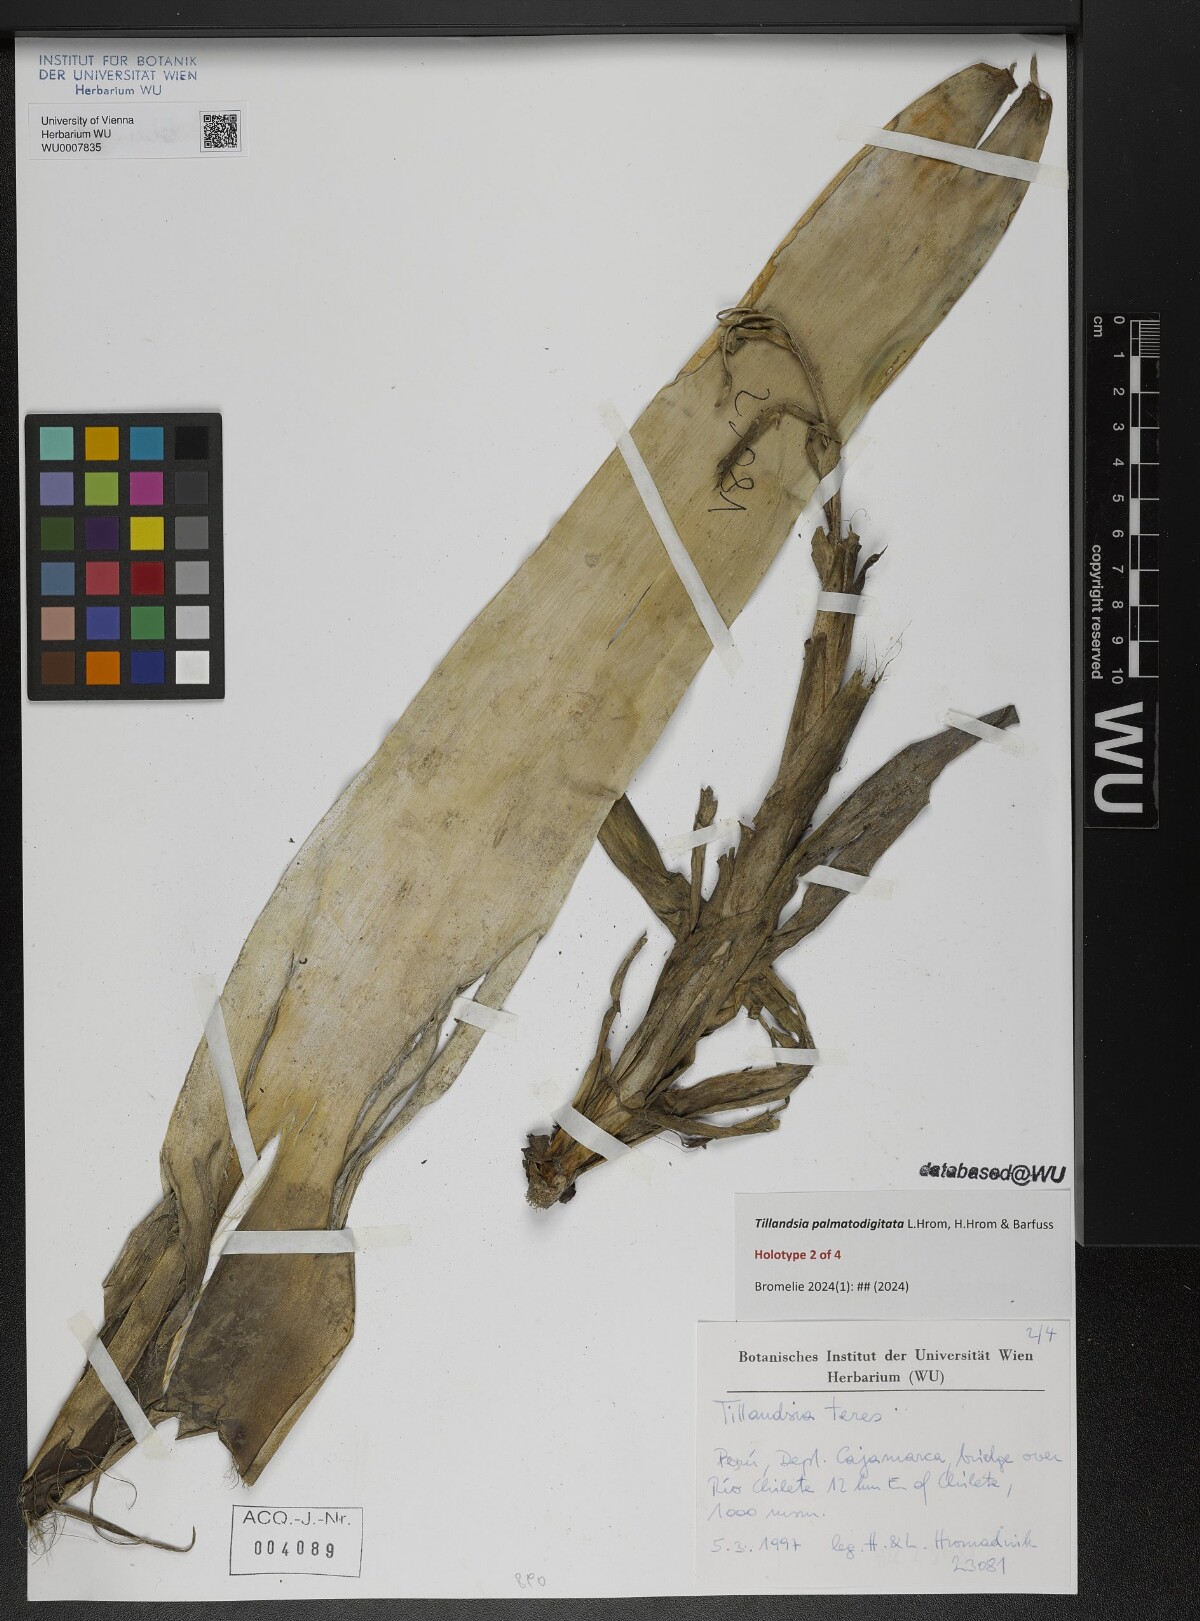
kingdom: Plantae
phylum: Tracheophyta
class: Liliopsida
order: Poales
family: Bromeliaceae
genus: Tillandsia
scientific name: Tillandsia
